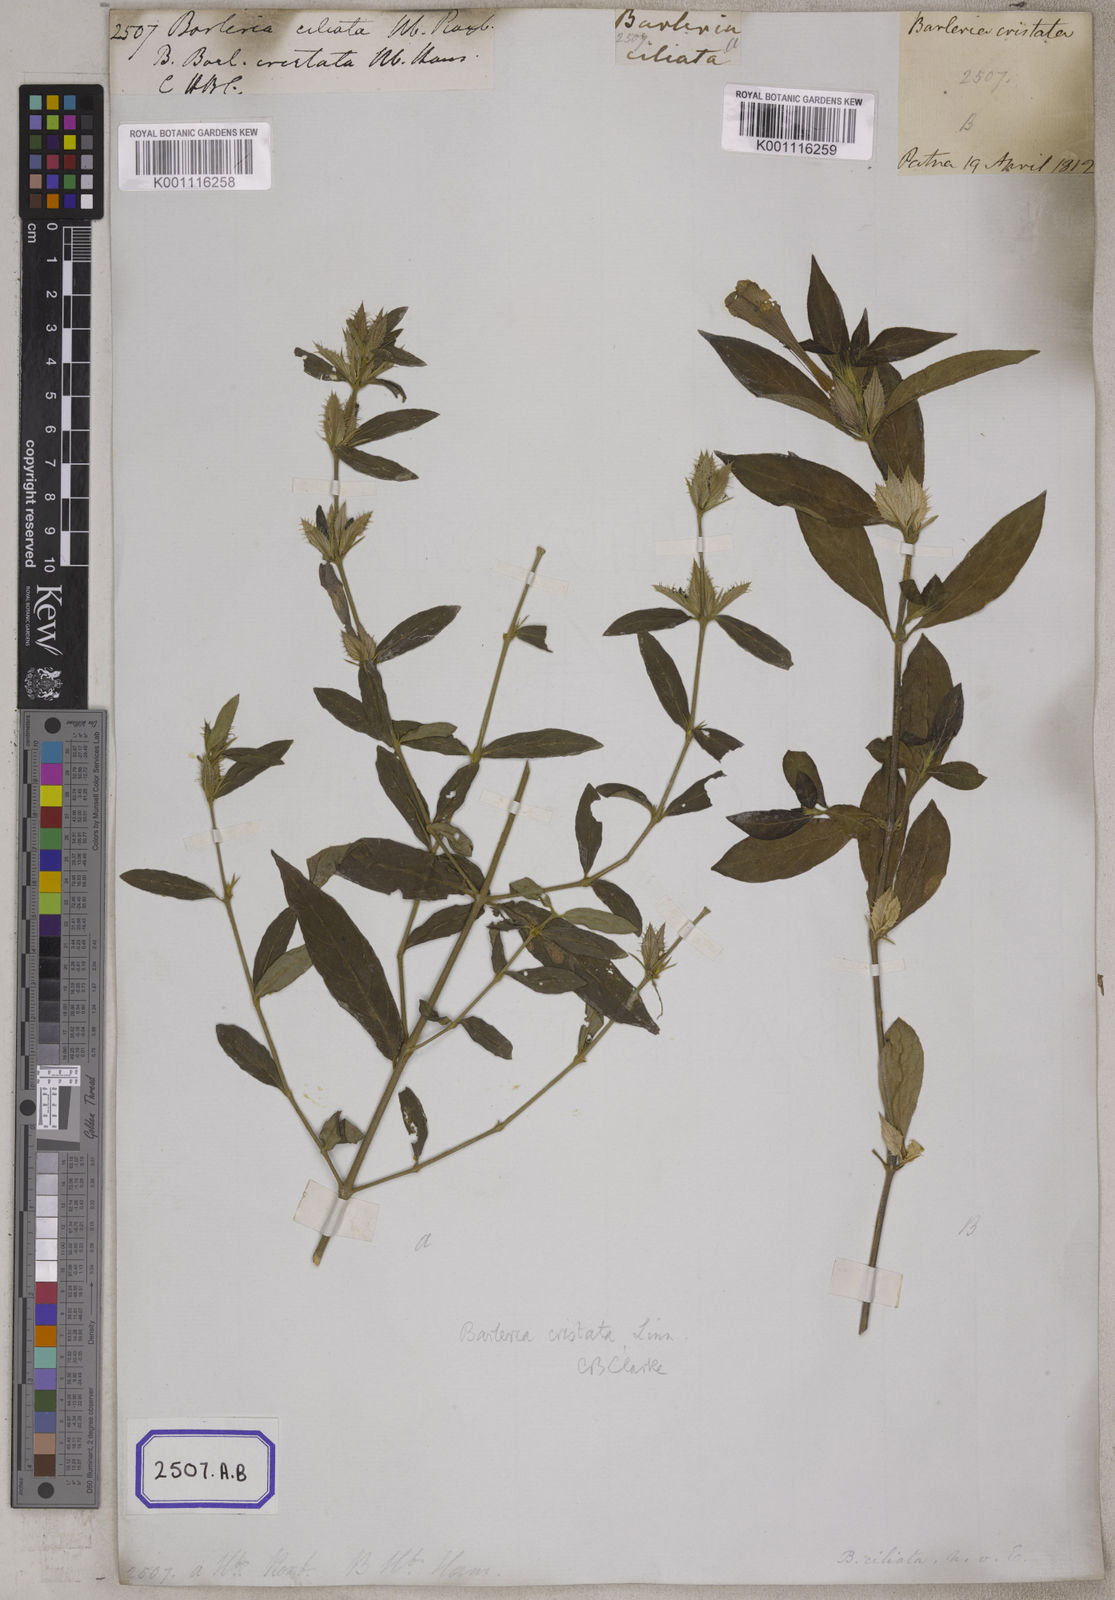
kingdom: Plantae
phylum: Tracheophyta
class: Magnoliopsida
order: Lamiales
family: Acanthaceae
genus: Barleria
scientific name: Barleria cristata
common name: Crested philippine violet
